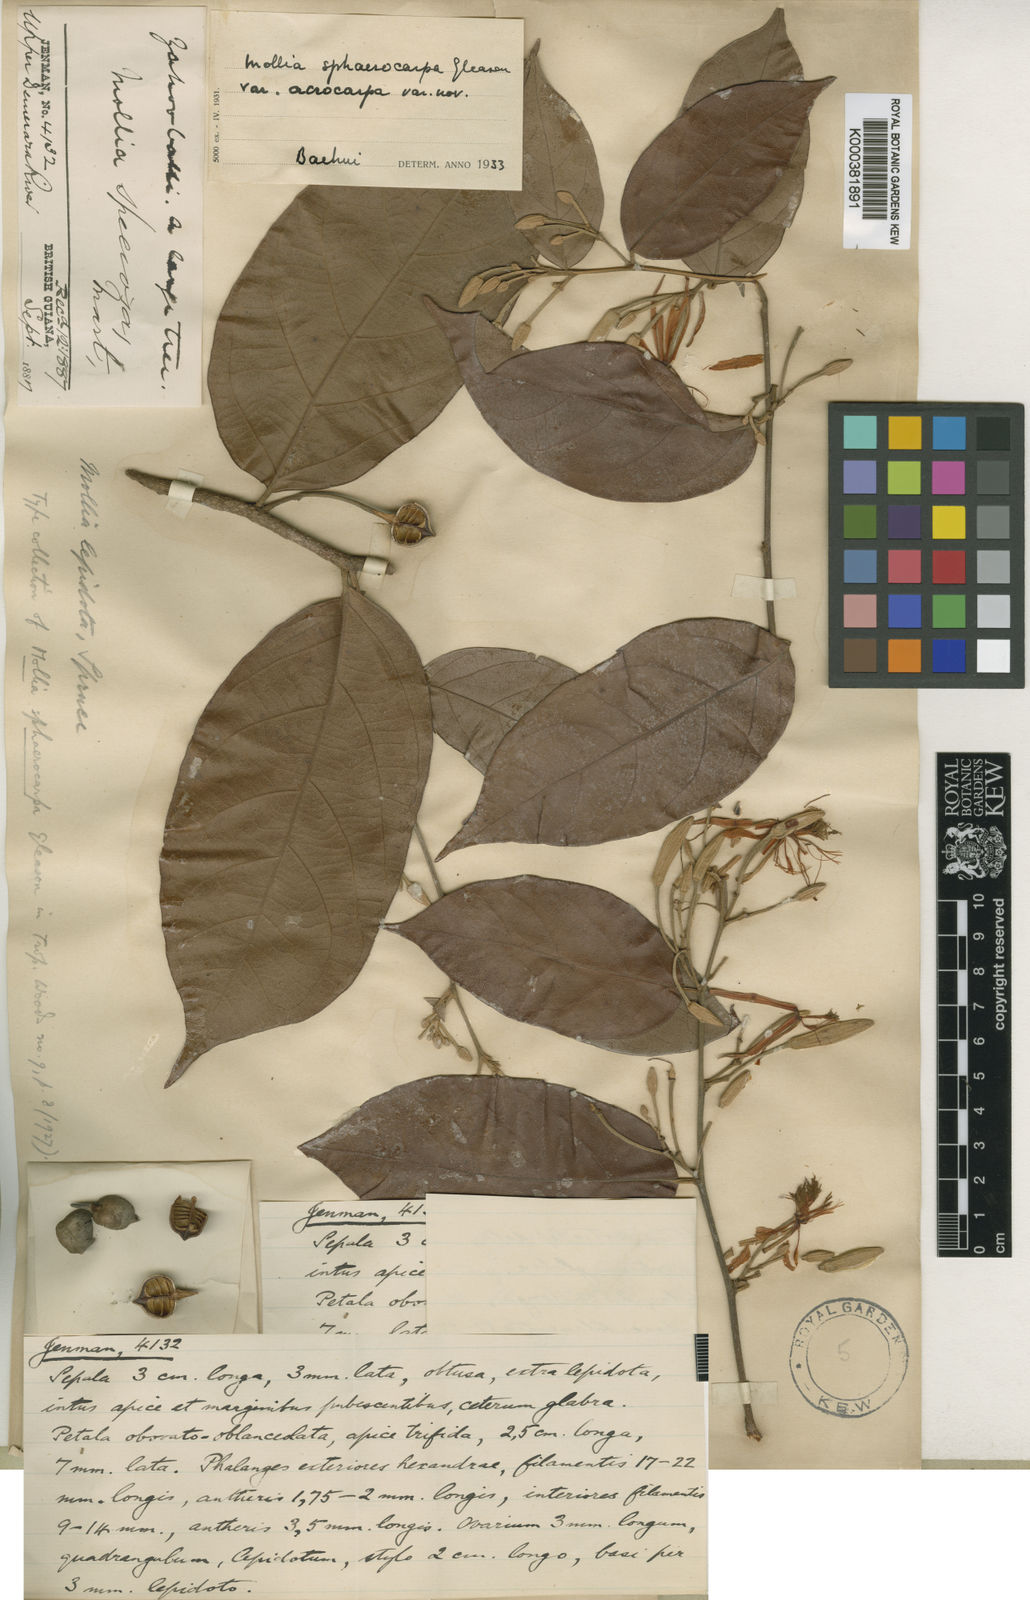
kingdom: Plantae
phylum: Tracheophyta
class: Magnoliopsida
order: Malvales
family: Malvaceae
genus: Mollia
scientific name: Mollia lepidota
